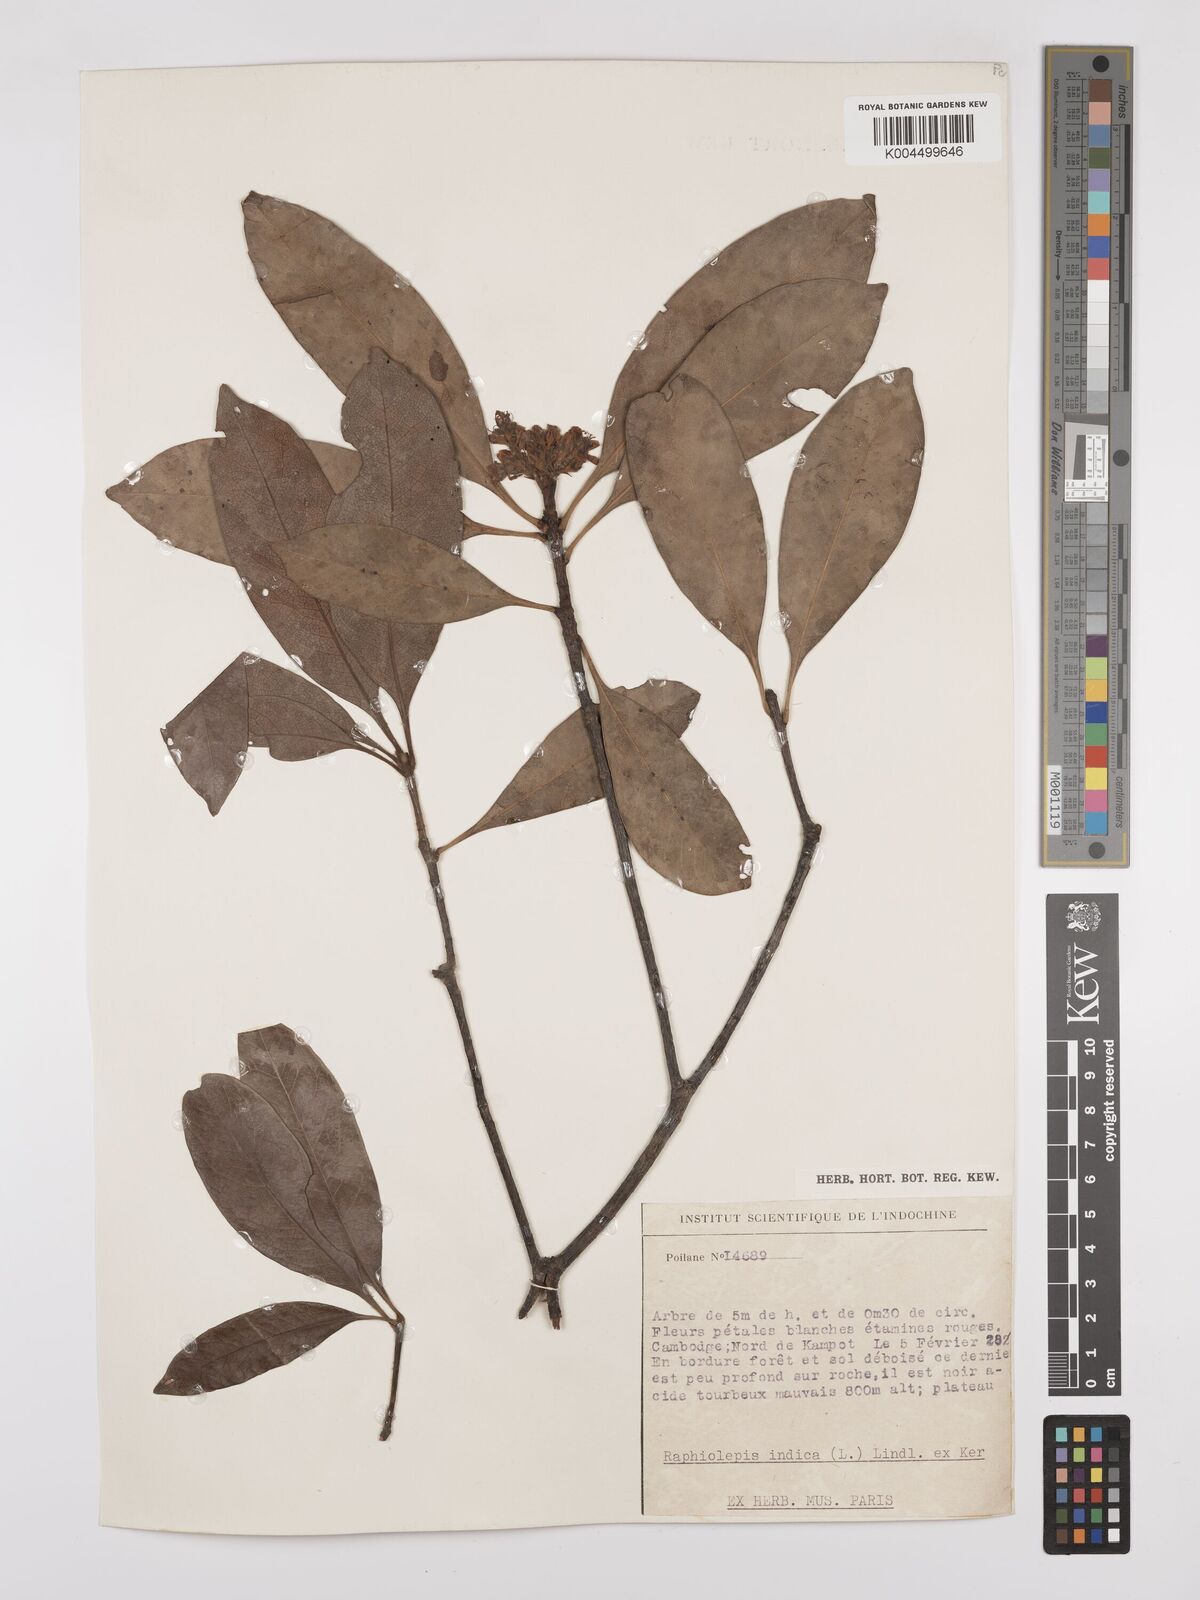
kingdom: Plantae
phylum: Tracheophyta
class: Magnoliopsida
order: Rosales
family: Rosaceae
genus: Rhaphiolepis
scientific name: Rhaphiolepis indica
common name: India-hawthorn
